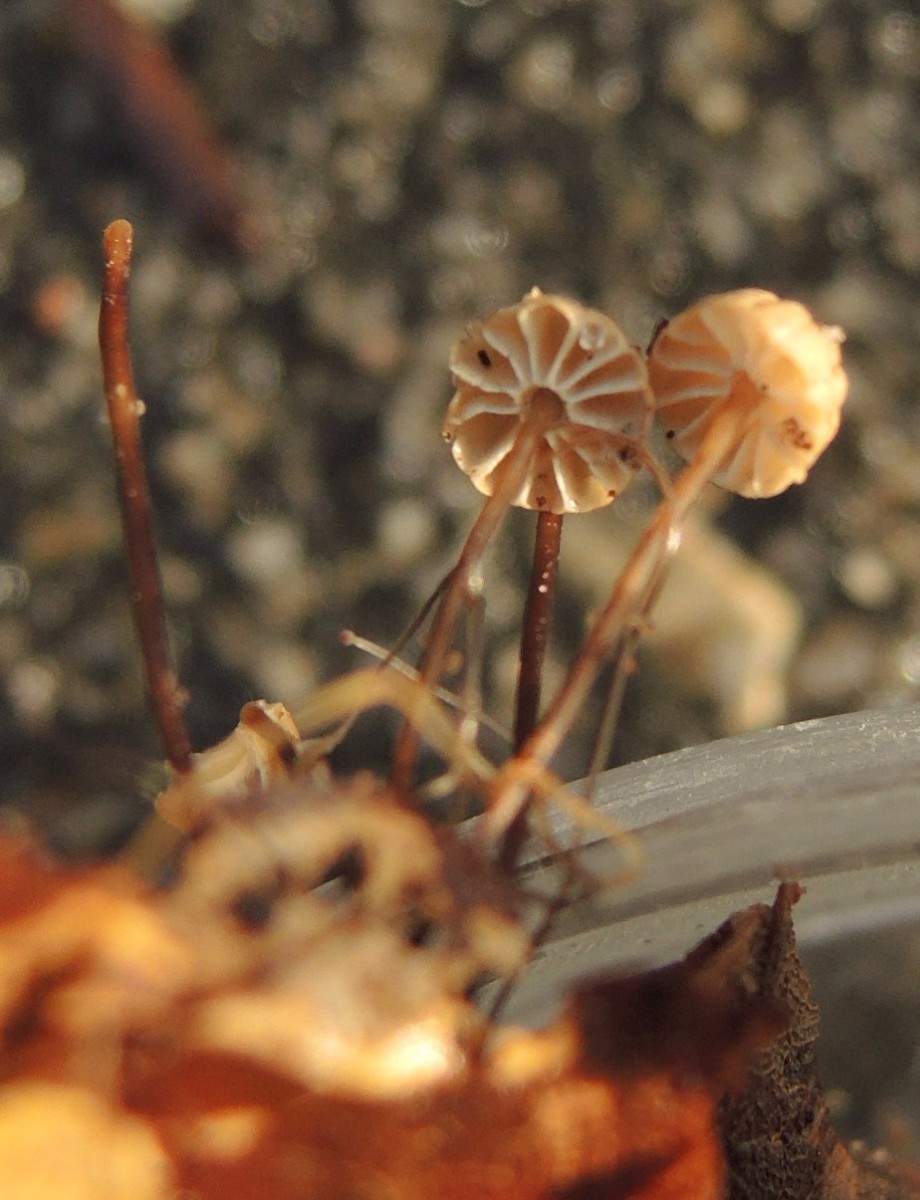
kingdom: Fungi
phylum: Basidiomycota
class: Agaricomycetes
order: Agaricales
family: Marasmiaceae
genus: Marasmius
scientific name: Marasmius bulliardii
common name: furet bruskhat
